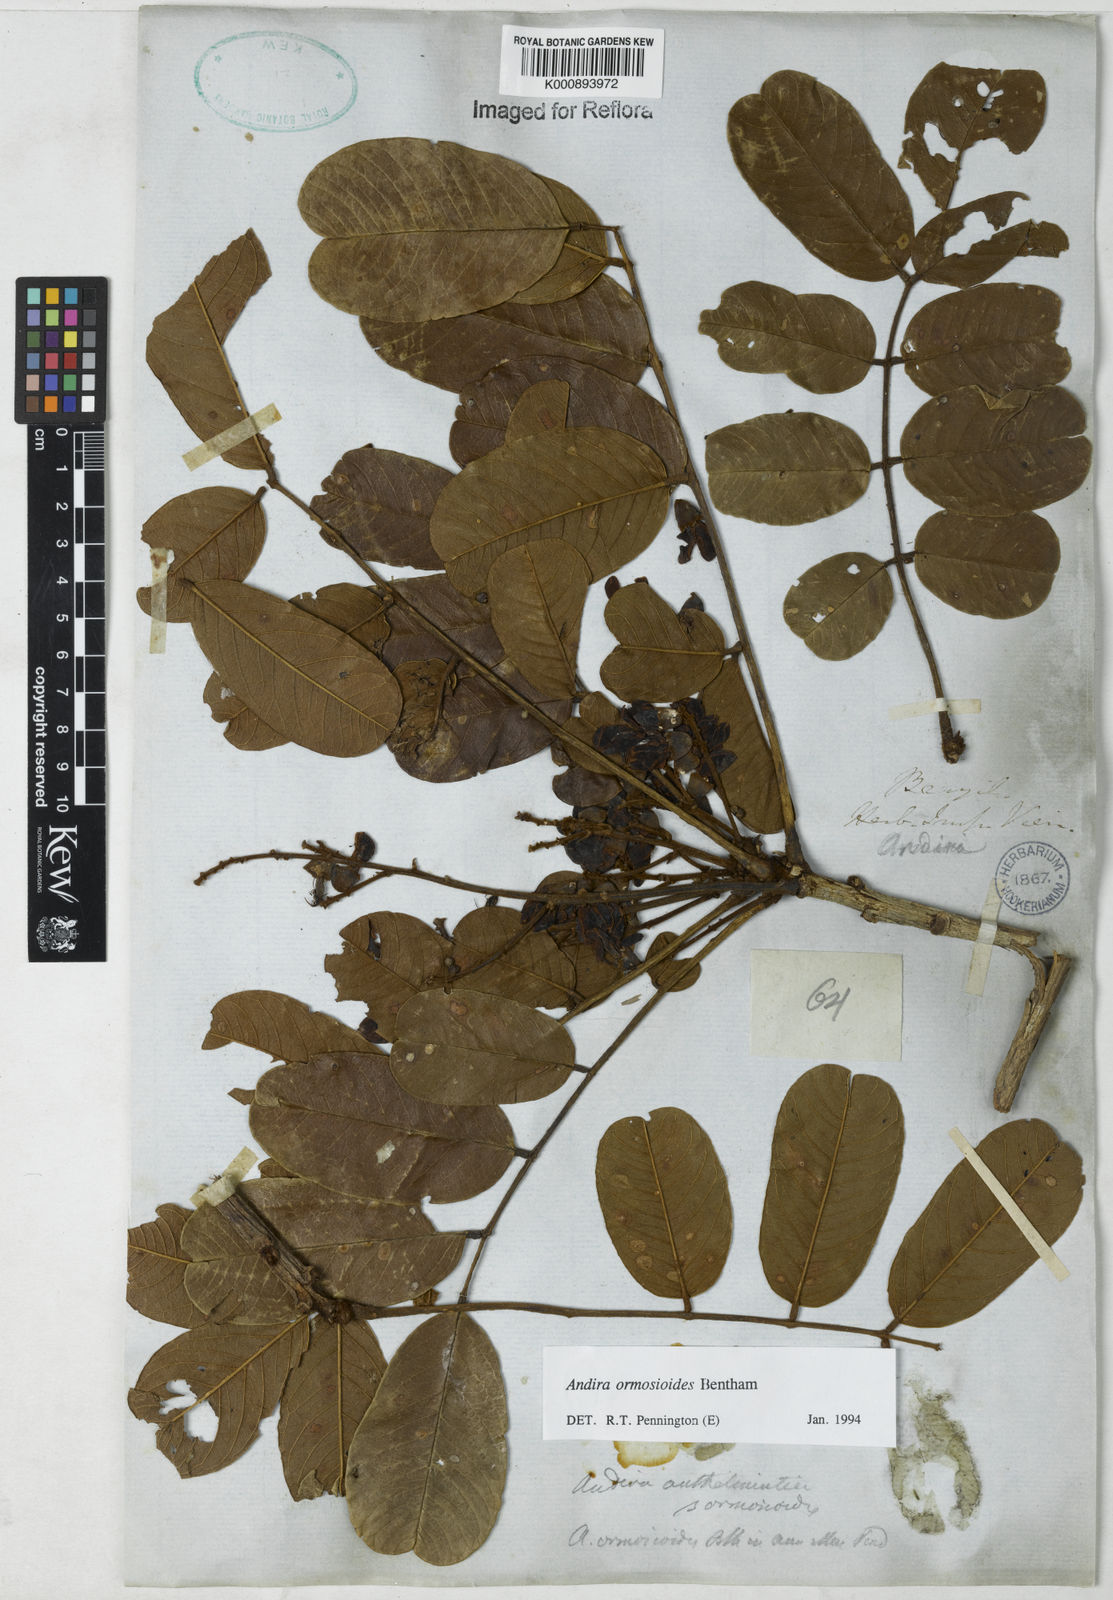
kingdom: Plantae
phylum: Tracheophyta
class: Magnoliopsida
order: Fabales
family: Fabaceae
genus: Andira
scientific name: Andira
